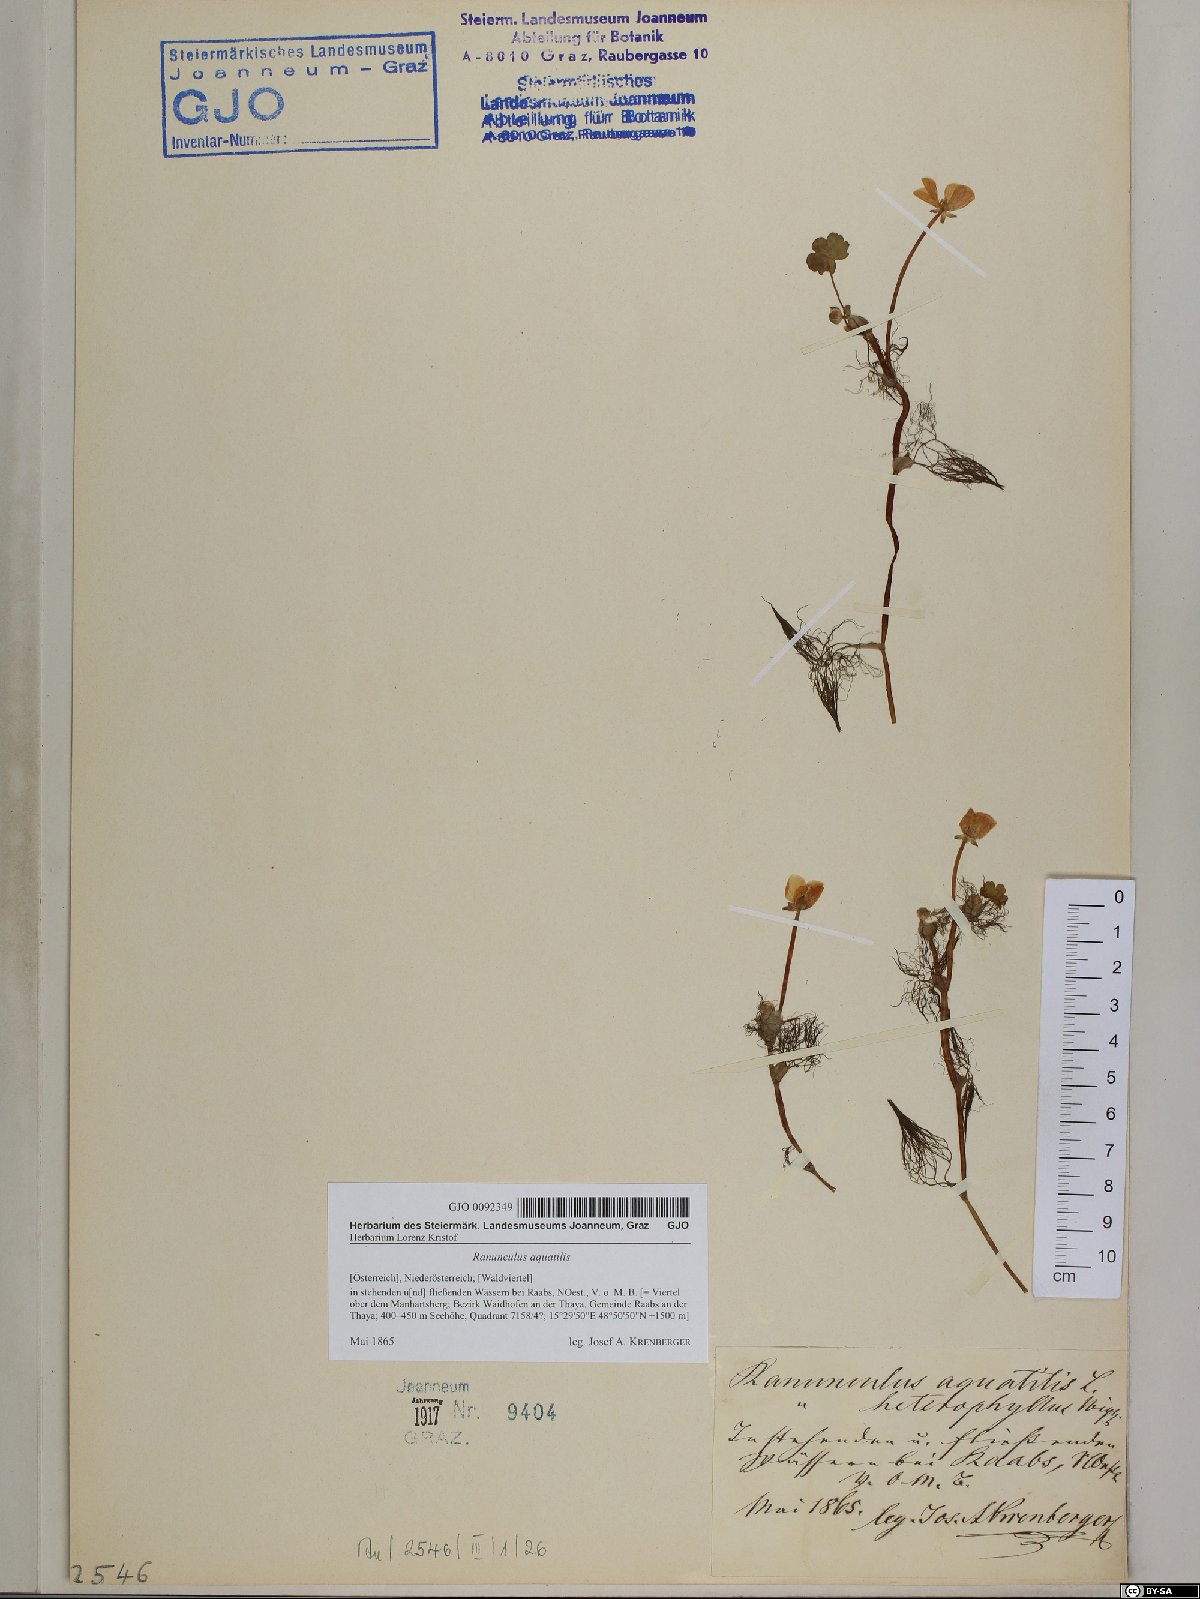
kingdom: Plantae
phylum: Tracheophyta
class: Magnoliopsida
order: Ranunculales
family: Ranunculaceae
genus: Ranunculus
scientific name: Ranunculus aquatilis
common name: Common water-crowfoot
